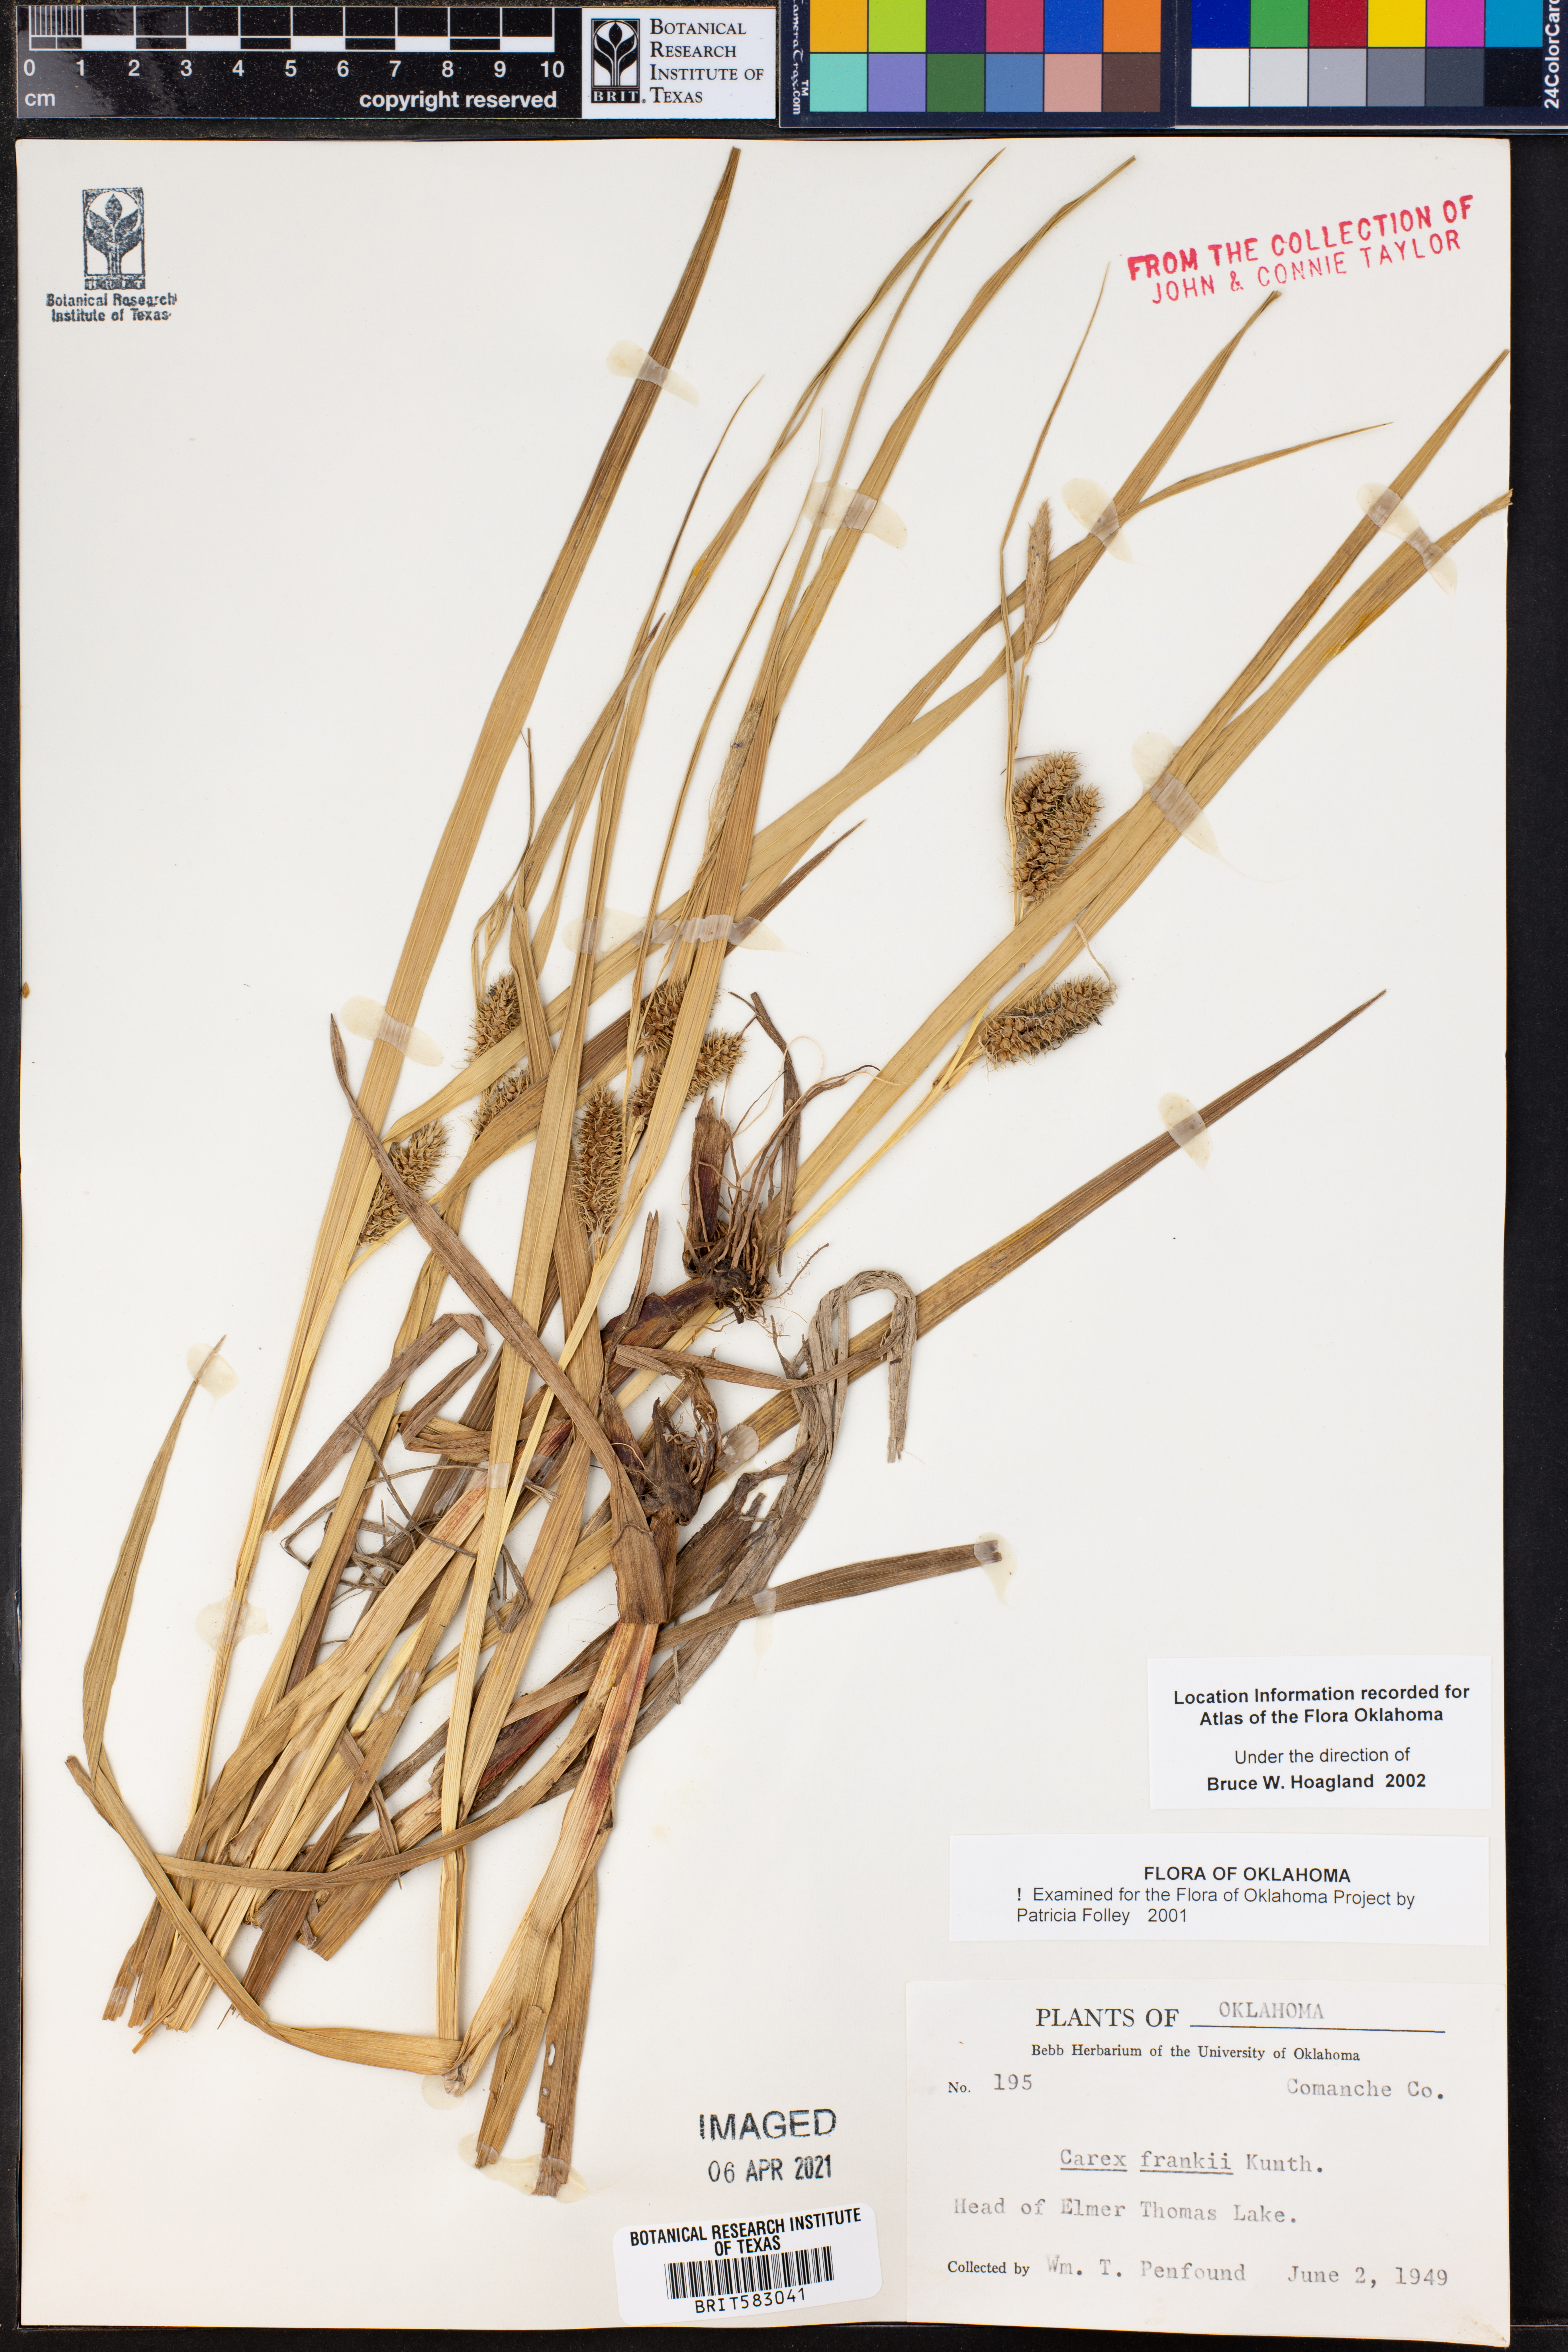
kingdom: Plantae
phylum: Tracheophyta
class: Liliopsida
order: Poales
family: Cyperaceae
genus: Carex
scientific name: Carex frankii
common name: Frank's sedge
